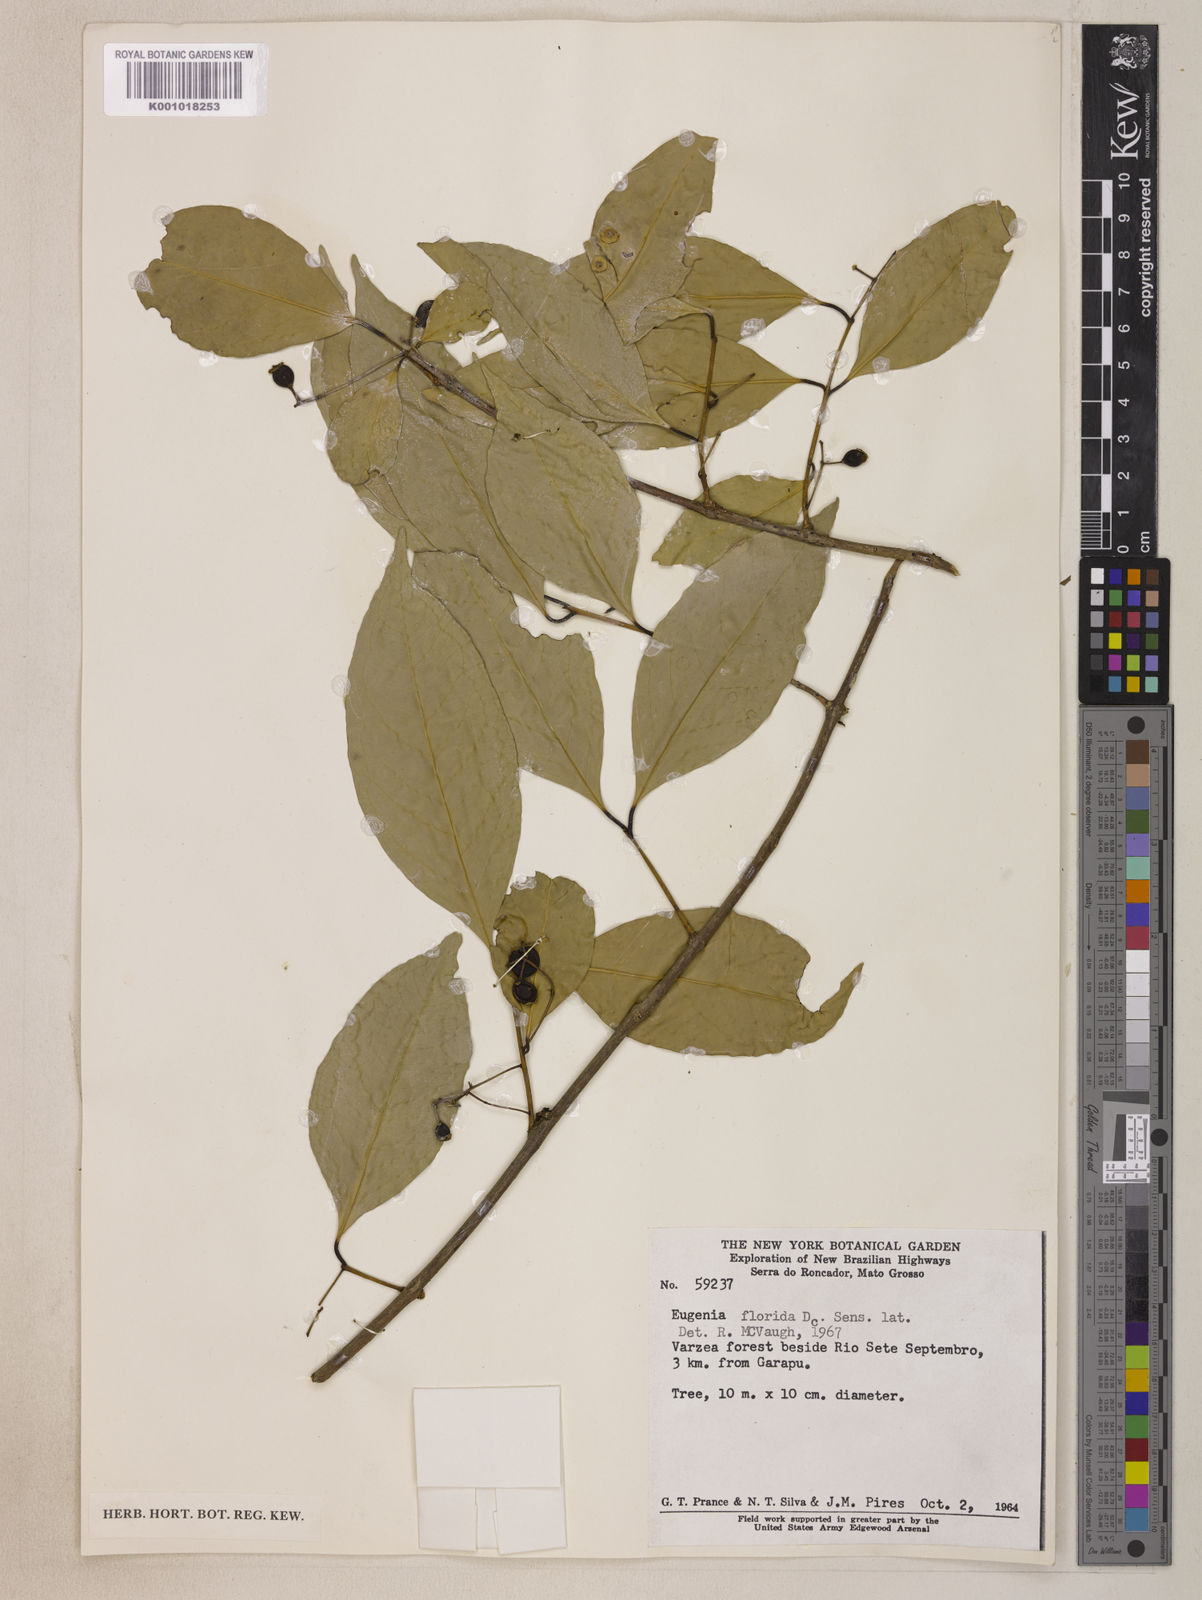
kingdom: Plantae
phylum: Tracheophyta
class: Magnoliopsida
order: Myrtales
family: Myrtaceae
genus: Eugenia
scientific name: Eugenia florida
